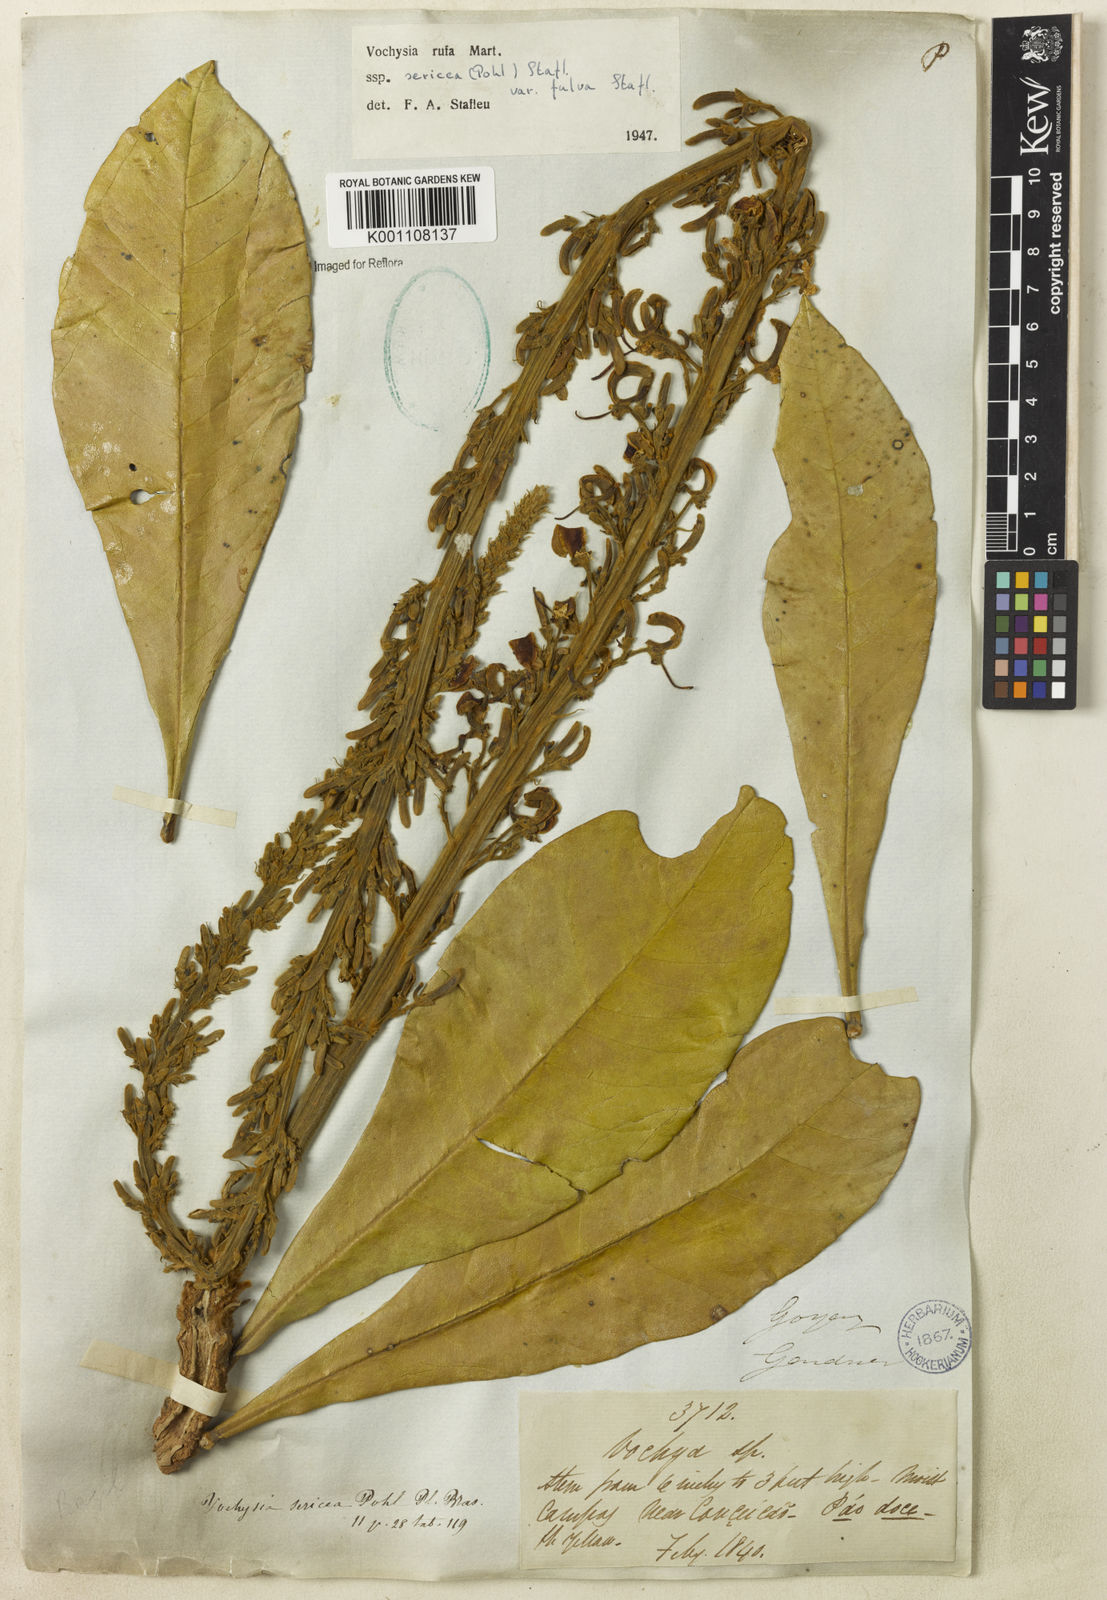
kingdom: Plantae
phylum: Tracheophyta
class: Magnoliopsida
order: Myrtales
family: Vochysiaceae
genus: Vochysia
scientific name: Vochysia rufa
